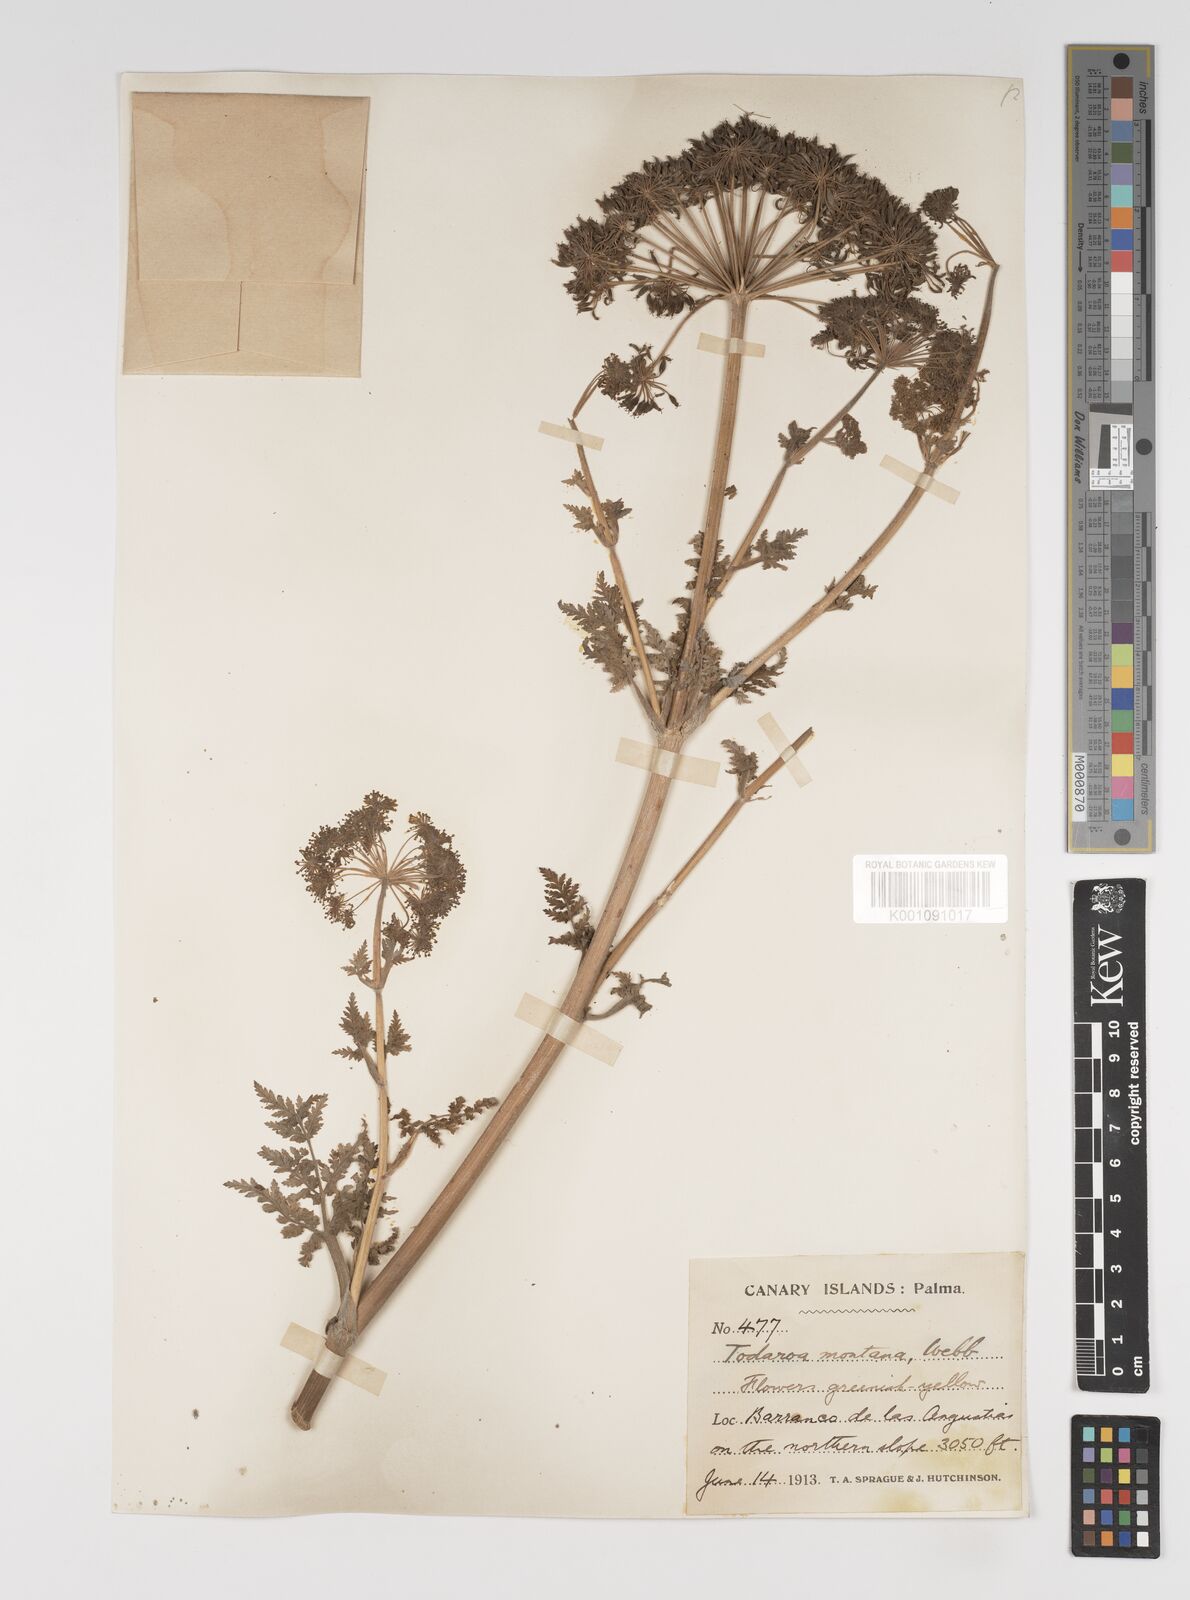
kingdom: Plantae
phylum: Tracheophyta
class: Magnoliopsida
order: Apiales
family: Apiaceae
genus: Athamanta
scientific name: Athamanta montana
